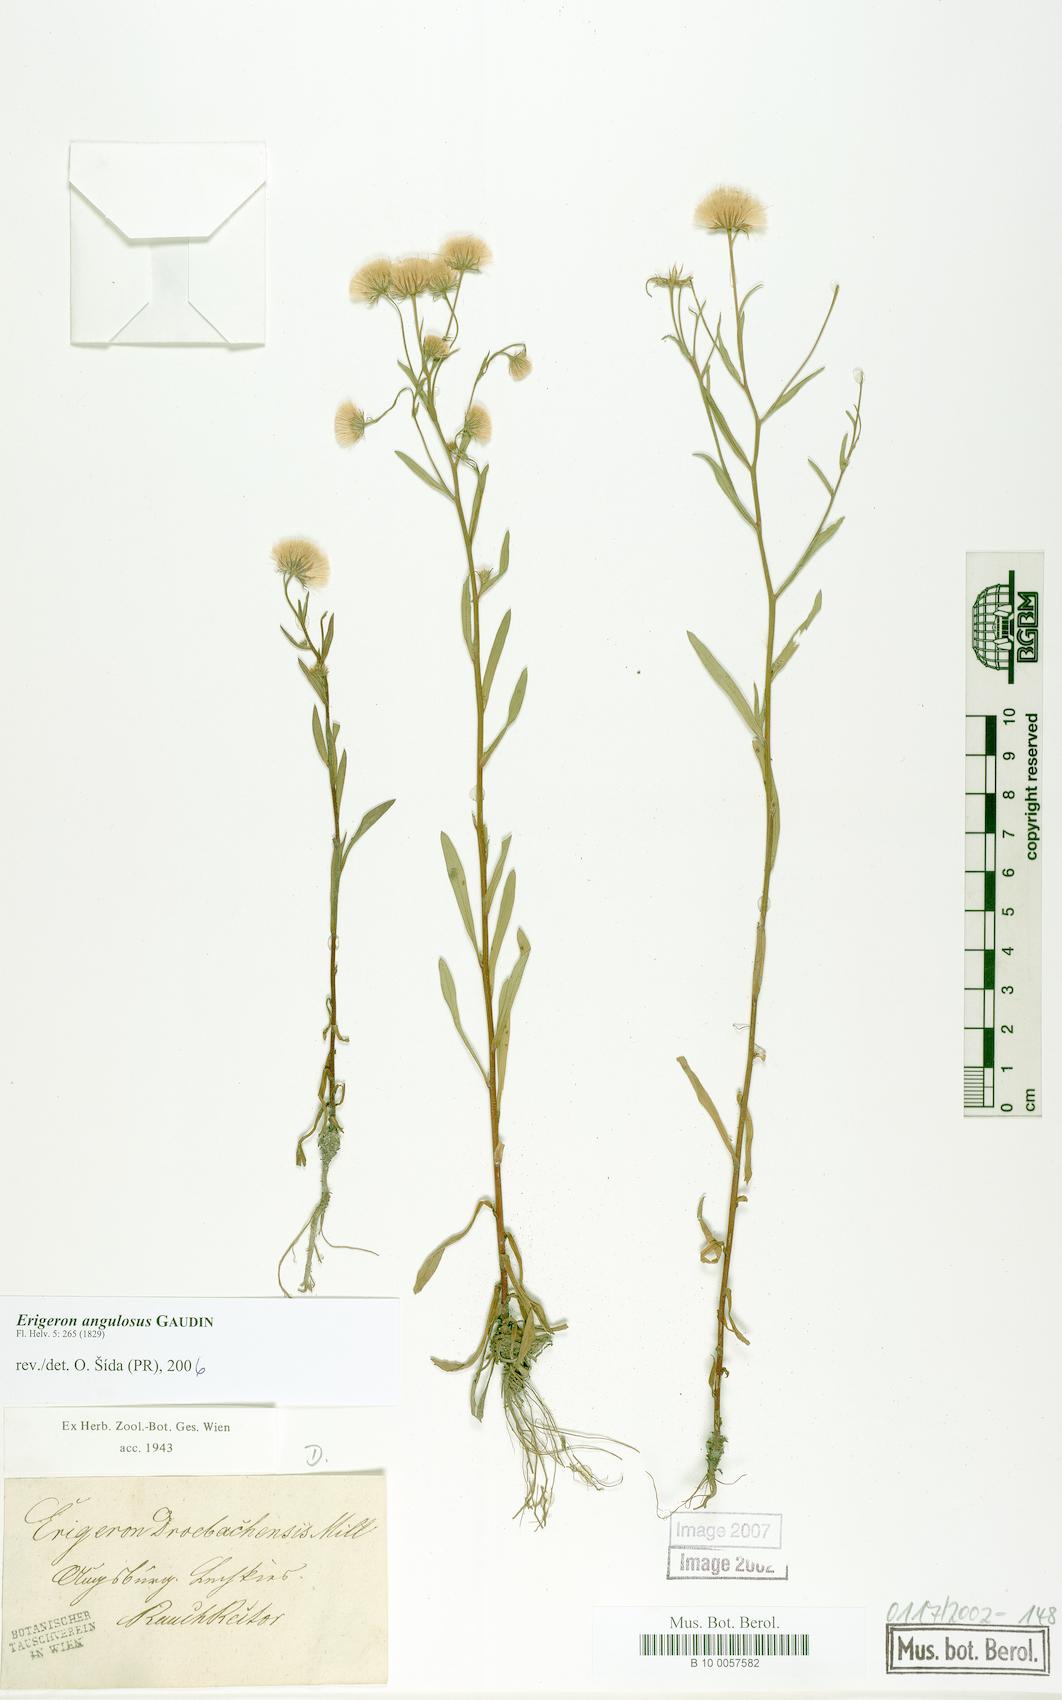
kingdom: Plantae
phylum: Tracheophyta
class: Magnoliopsida
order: Asterales
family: Asteraceae
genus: Erigeron
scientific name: Erigeron angulosus
